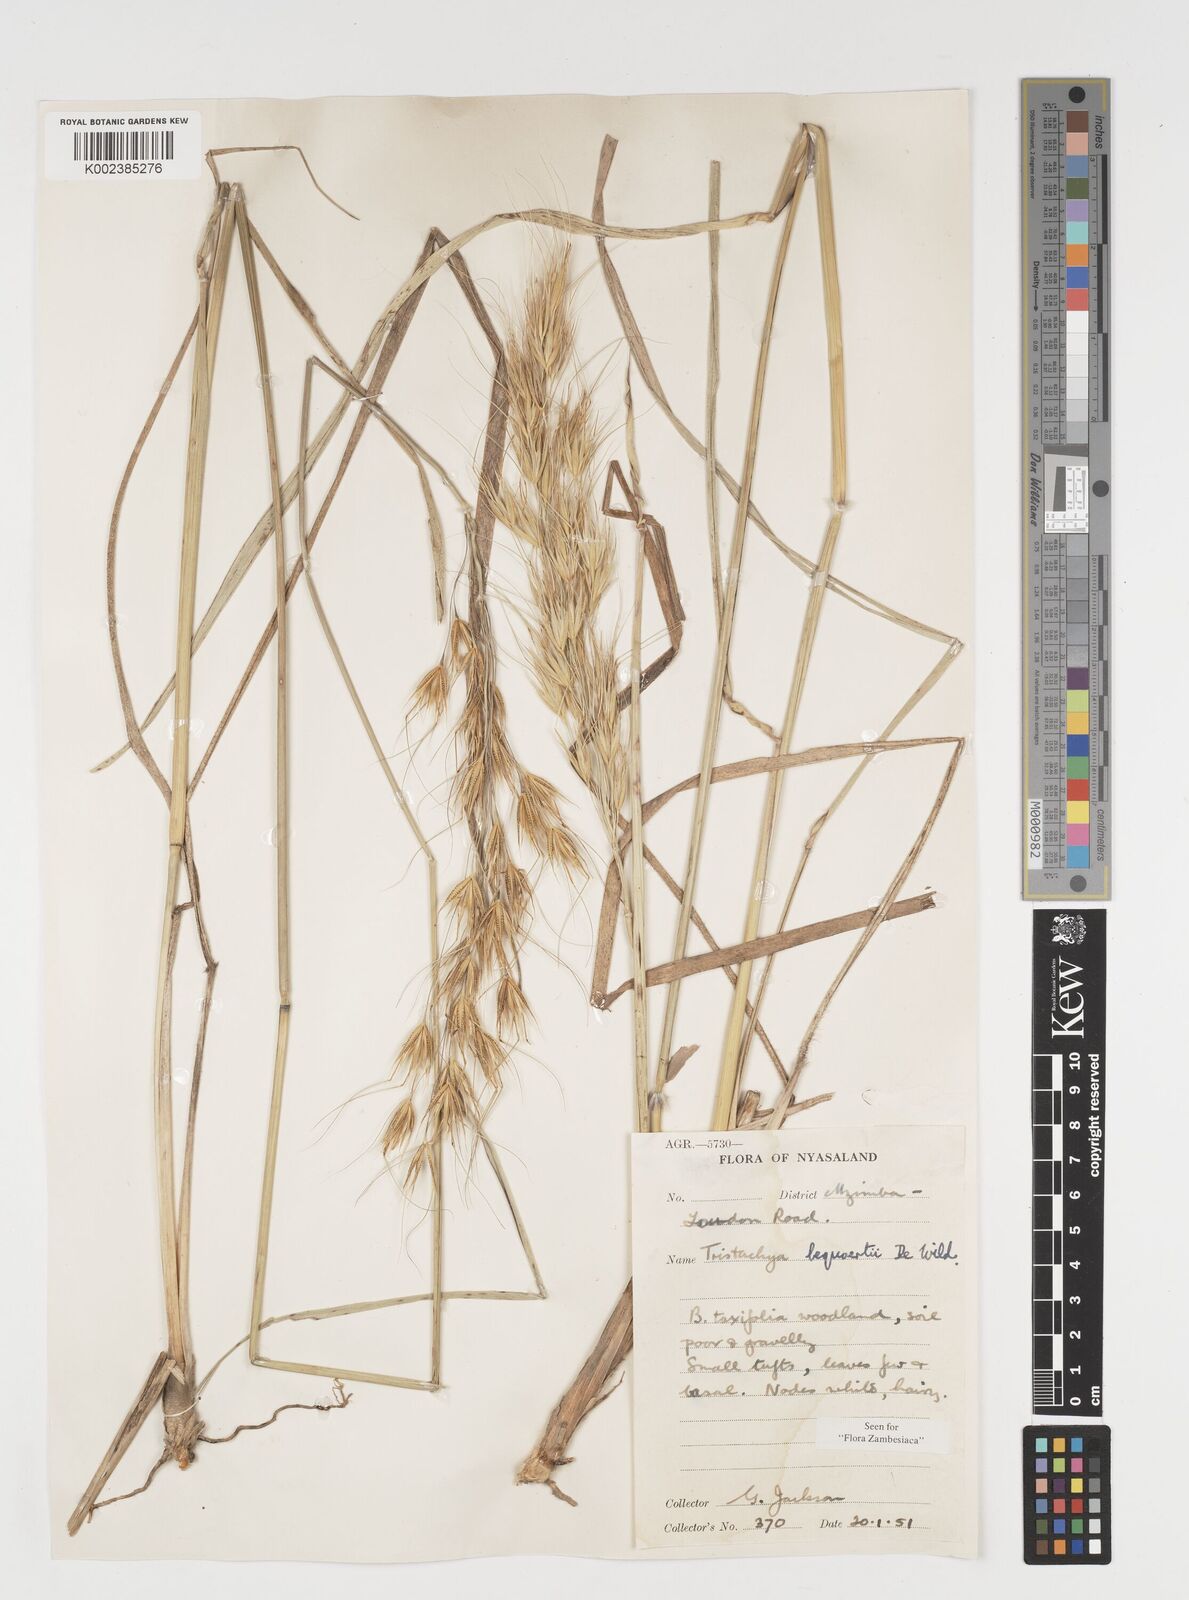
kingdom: Plantae
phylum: Tracheophyta
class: Liliopsida
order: Poales
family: Poaceae
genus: Tristachya
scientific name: Tristachya bequaertii
